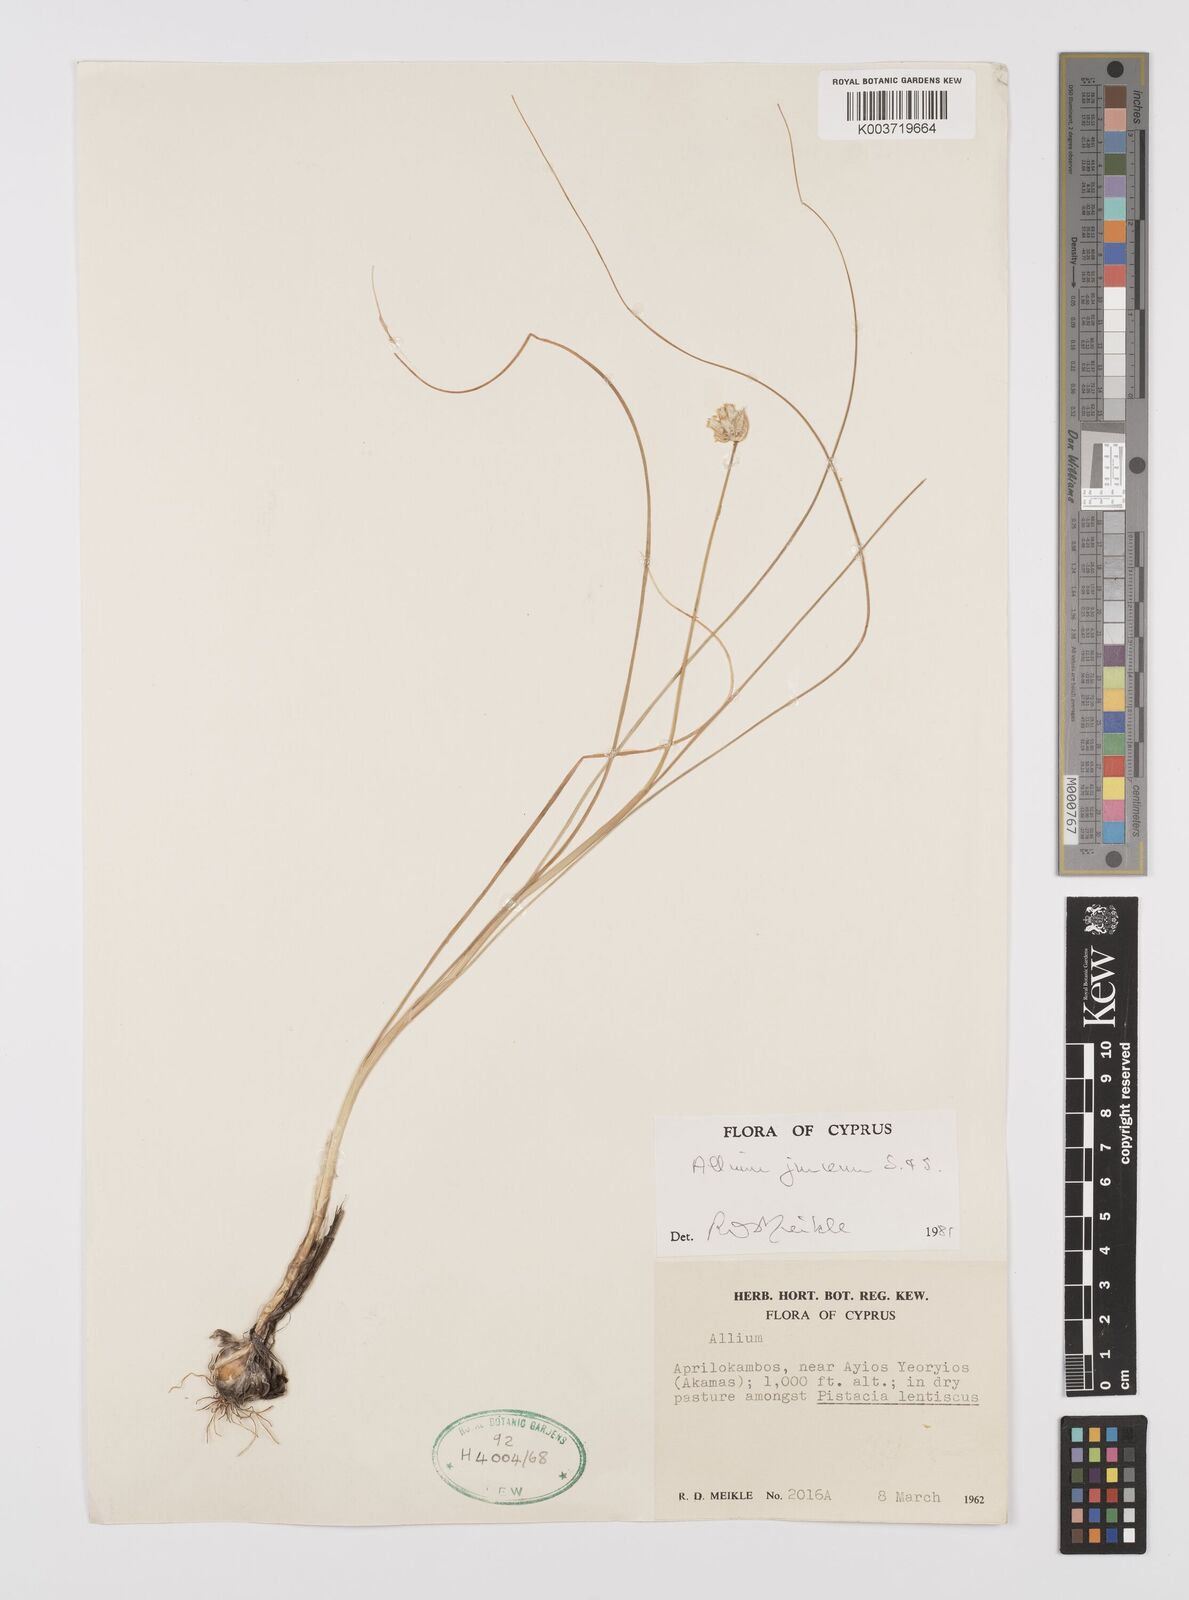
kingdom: Plantae
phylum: Tracheophyta
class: Liliopsida
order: Asparagales
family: Amaryllidaceae
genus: Allium
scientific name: Allium junceum
